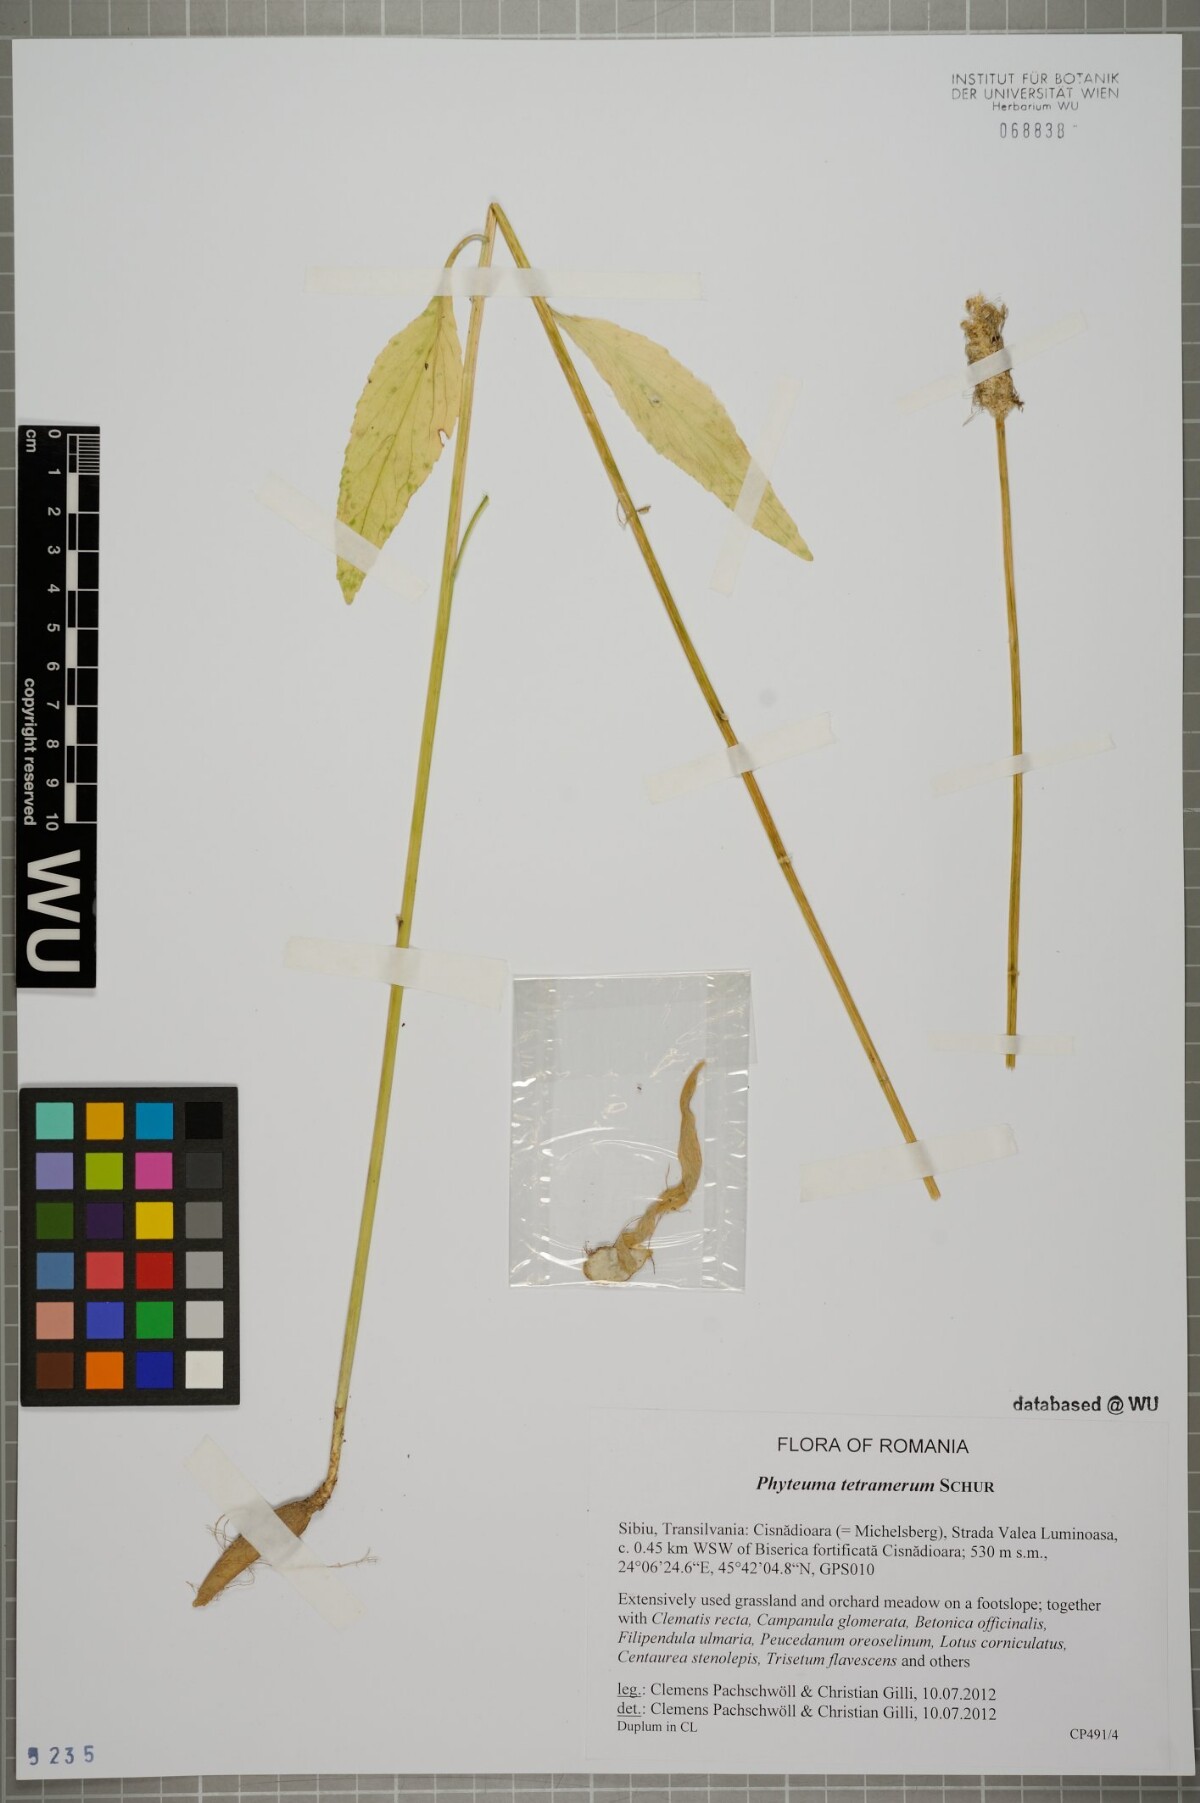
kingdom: Plantae
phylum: Tracheophyta
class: Magnoliopsida
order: Asterales
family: Campanulaceae
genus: Phyteuma
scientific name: Phyteuma tetramerum
